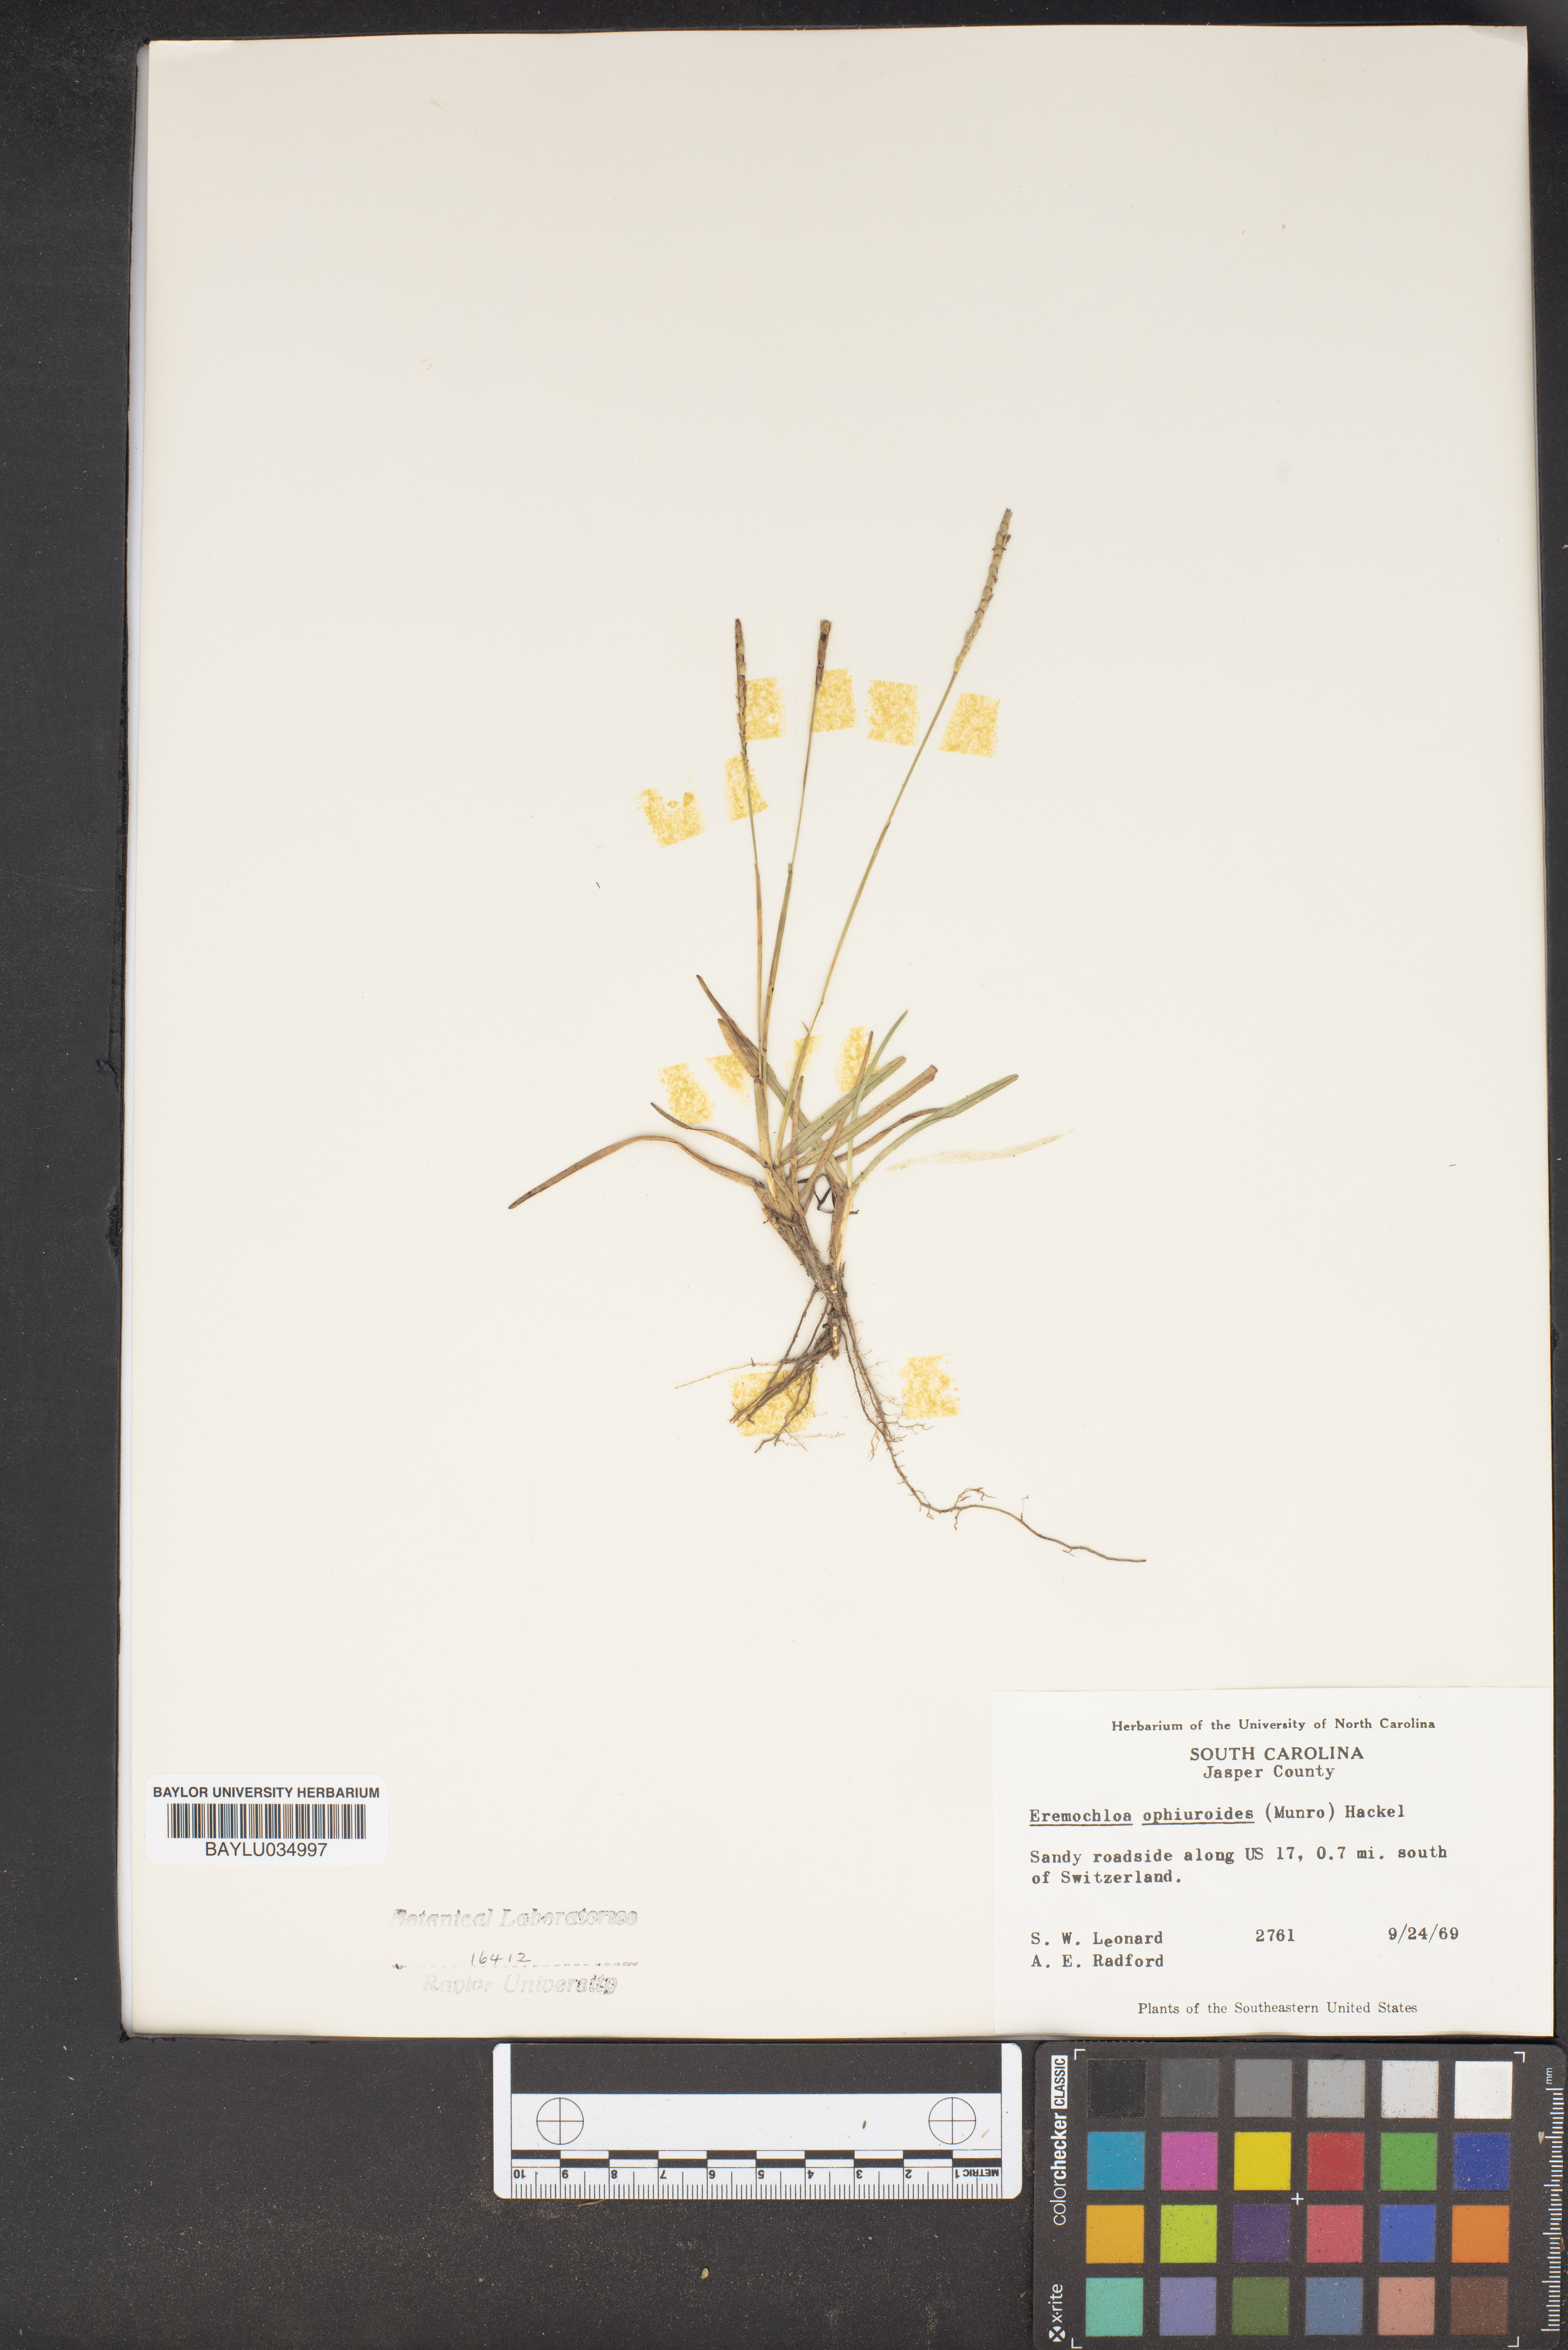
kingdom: Plantae
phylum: Tracheophyta
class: Liliopsida
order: Poales
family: Poaceae
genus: Eremochloa
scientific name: Eremochloa
